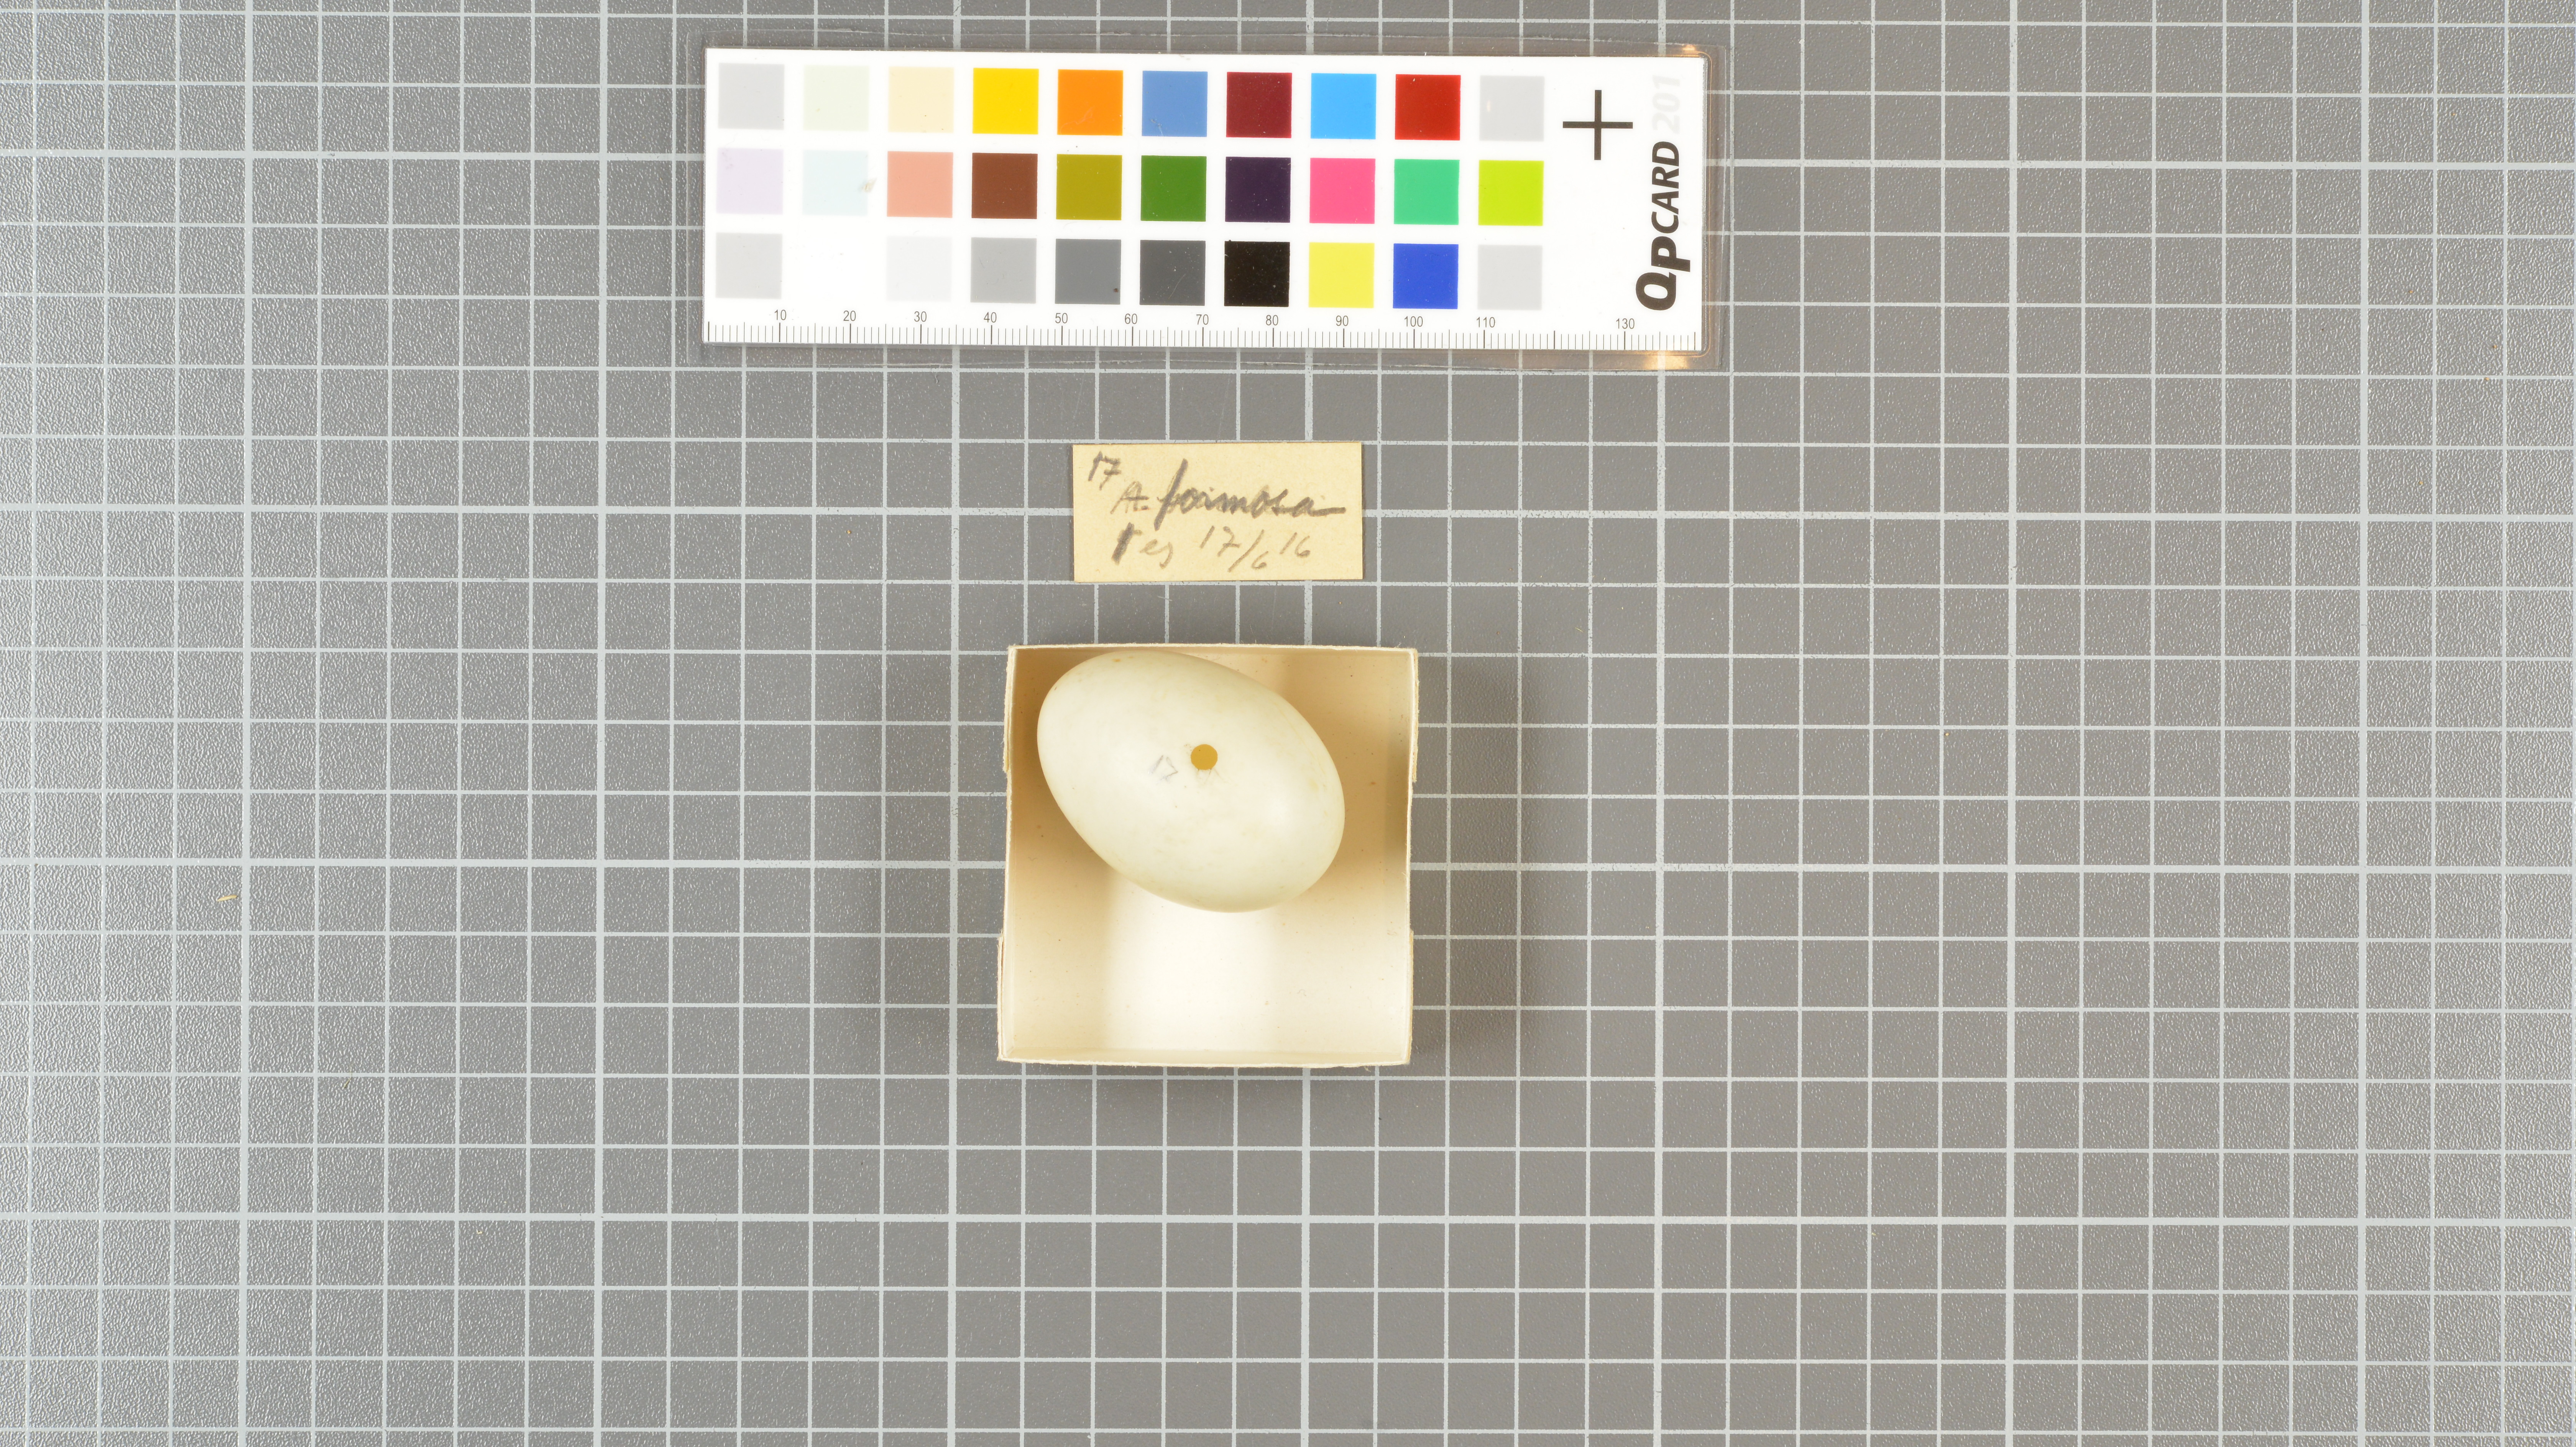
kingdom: Animalia
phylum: Chordata
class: Aves
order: Anseriformes
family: Anatidae
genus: Sibirionetta
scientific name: Sibirionetta formosa
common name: Baikal teal
